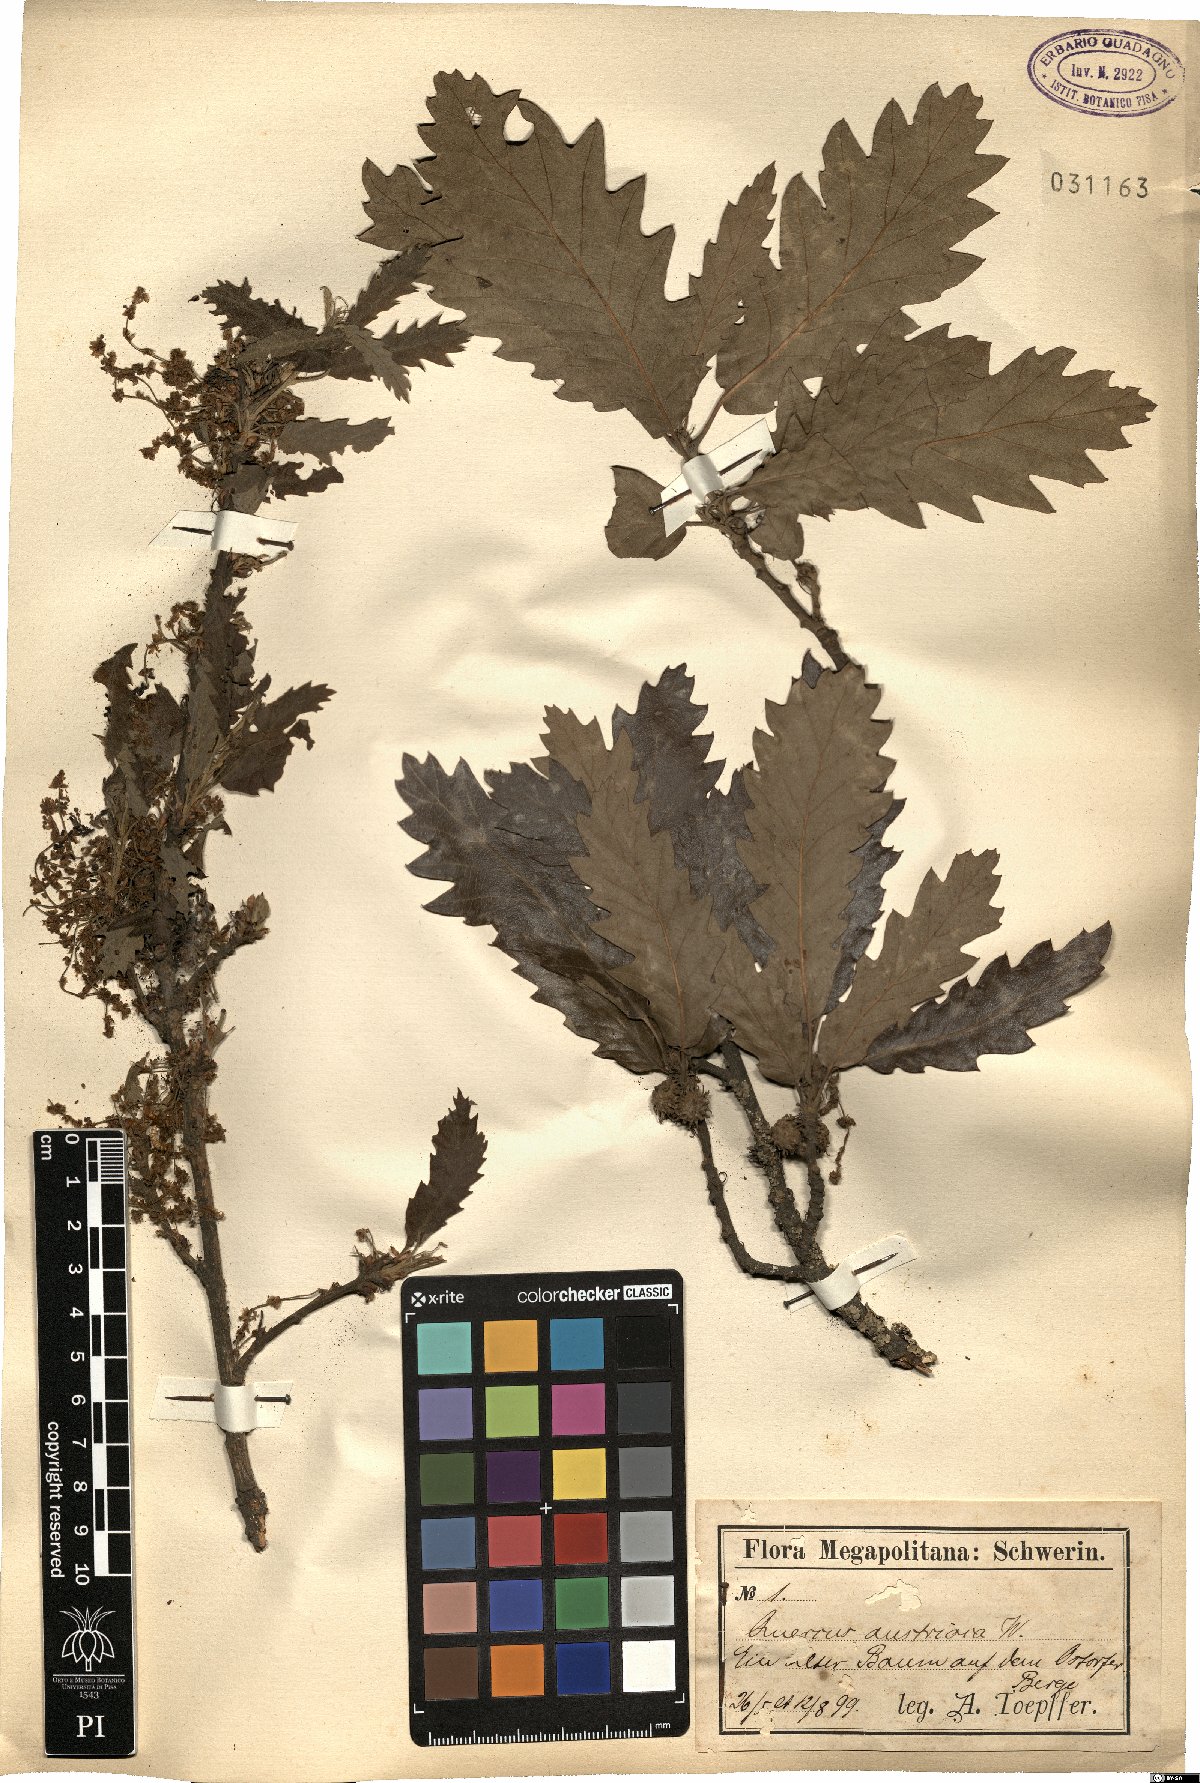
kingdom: Plantae
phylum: Tracheophyta
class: Magnoliopsida
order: Fagales
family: Fagaceae
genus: Quercus
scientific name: Quercus cerris
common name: Turkey oak
